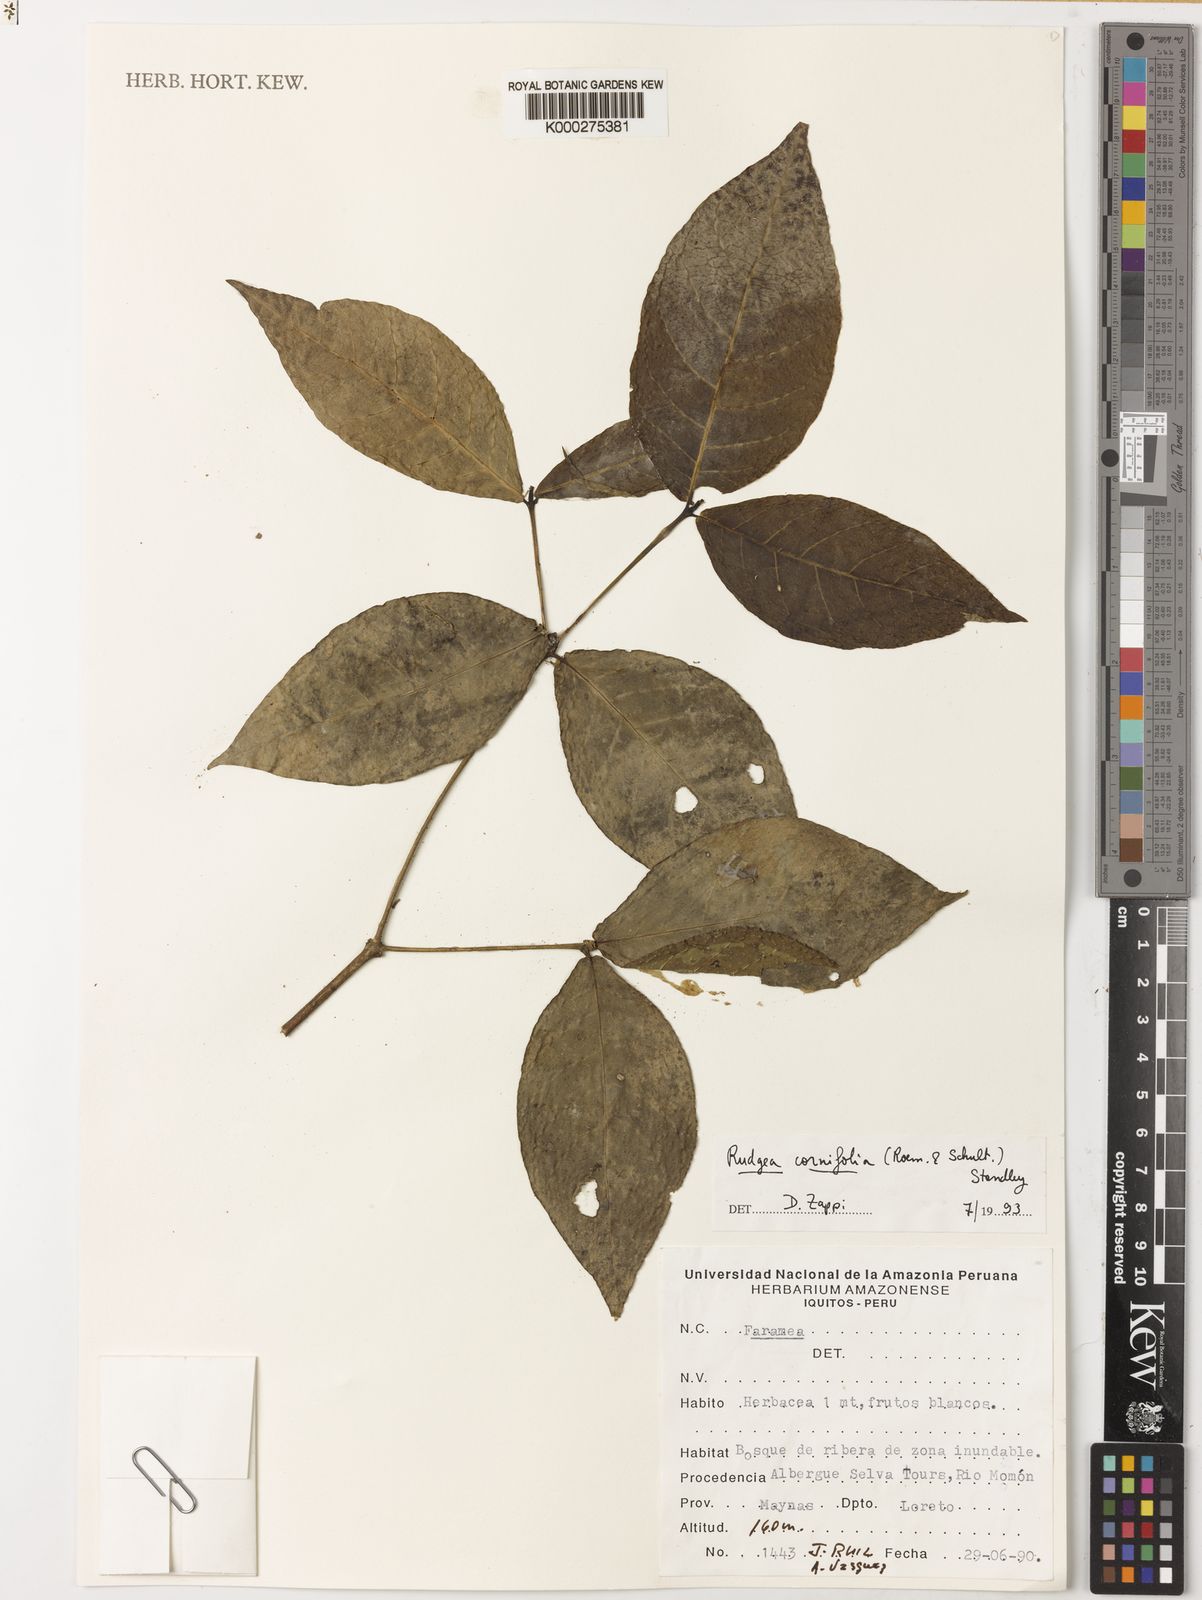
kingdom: Plantae
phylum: Tracheophyta
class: Magnoliopsida
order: Gentianales
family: Rubiaceae
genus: Rudgea
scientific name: Rudgea cornifolia
